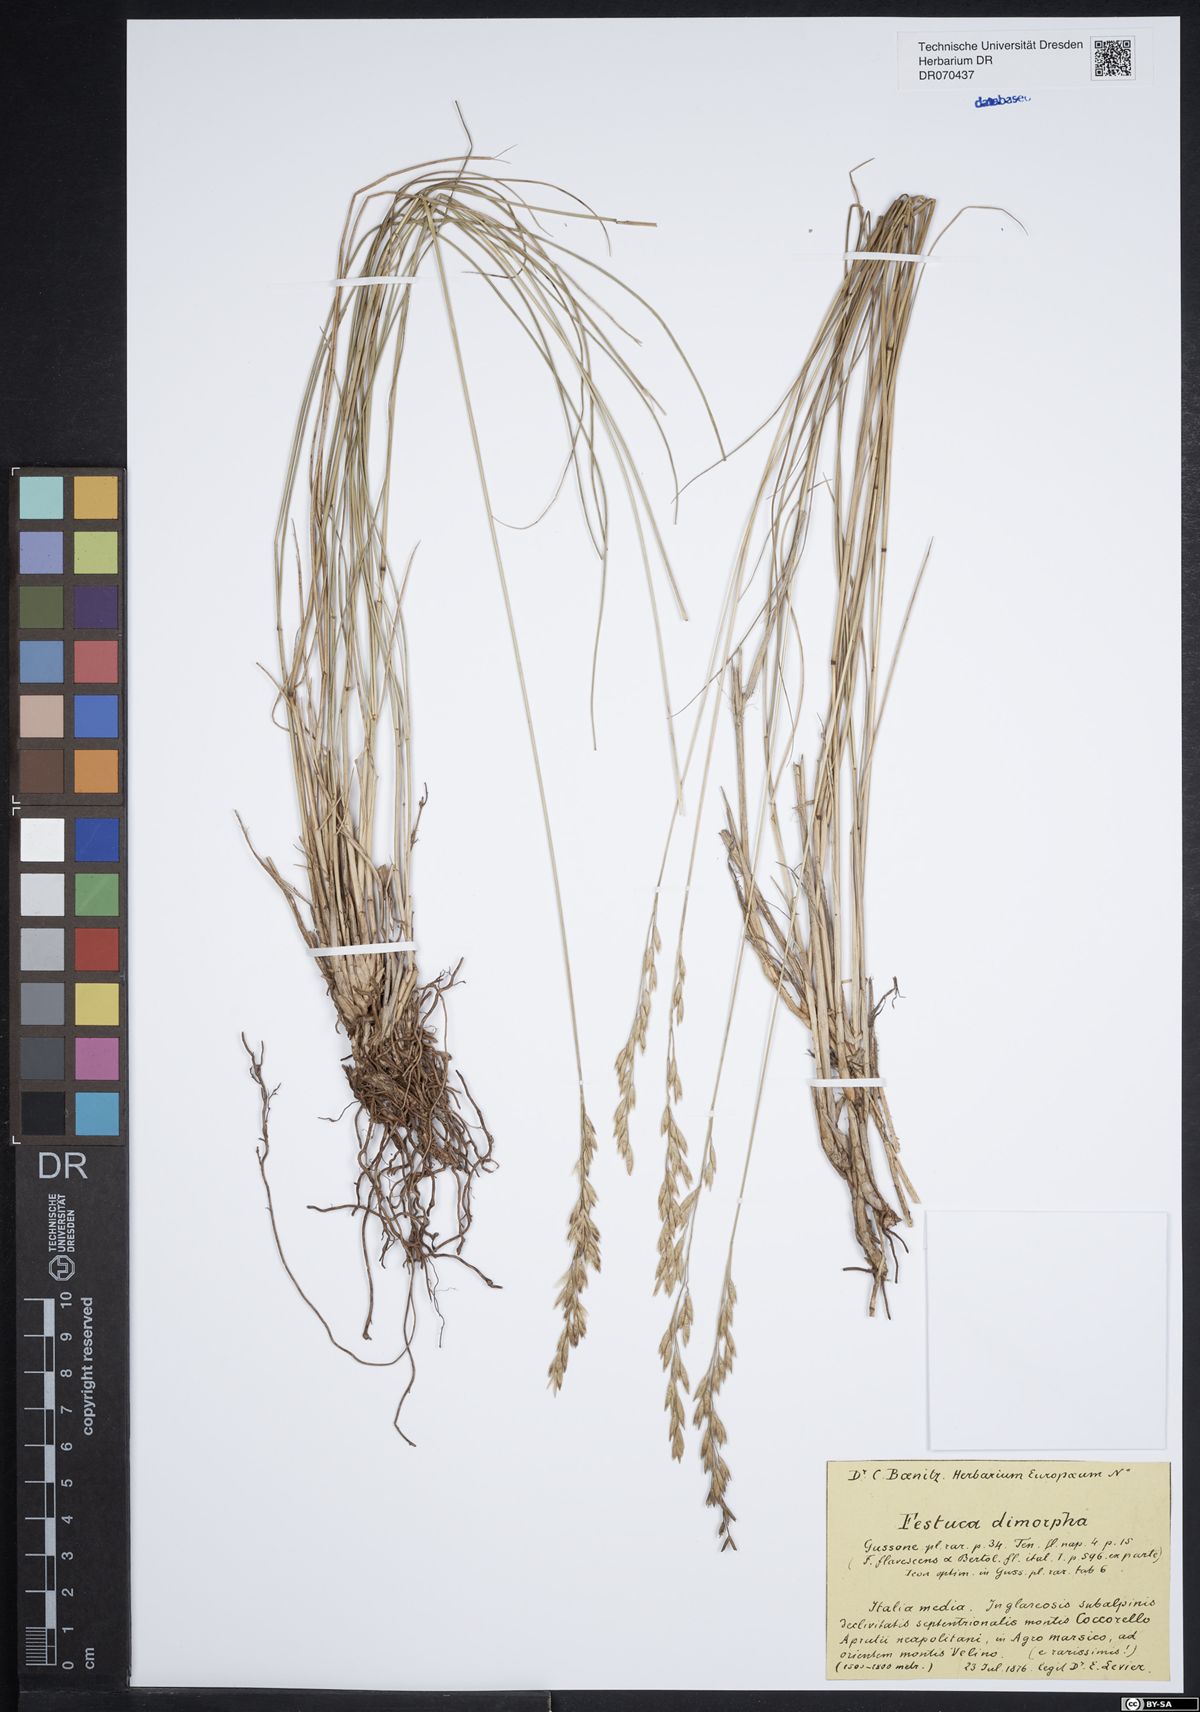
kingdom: Plantae
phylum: Tracheophyta
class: Liliopsida
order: Poales
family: Poaceae
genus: Festuca
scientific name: Festuca dimorpha
